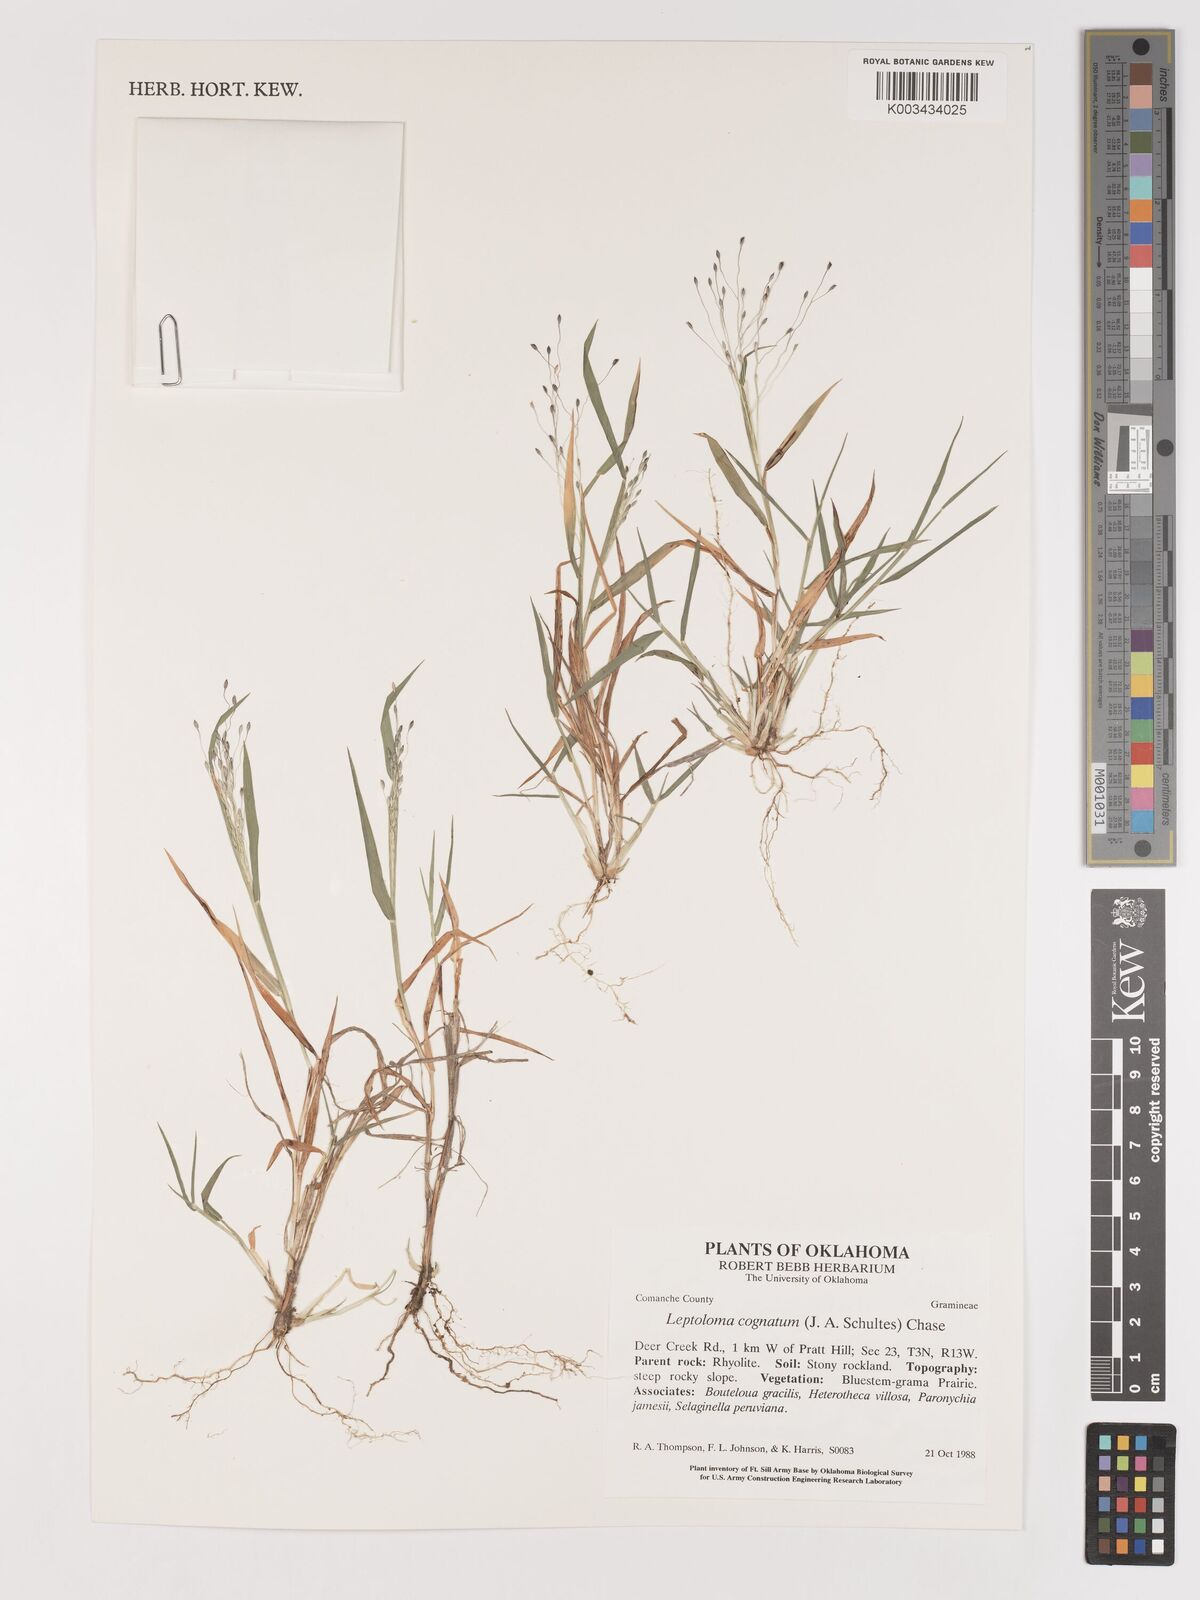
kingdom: Plantae
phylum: Tracheophyta
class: Liliopsida
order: Poales
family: Poaceae
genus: Digitaria
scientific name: Digitaria cognata
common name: Fall witchgrass
